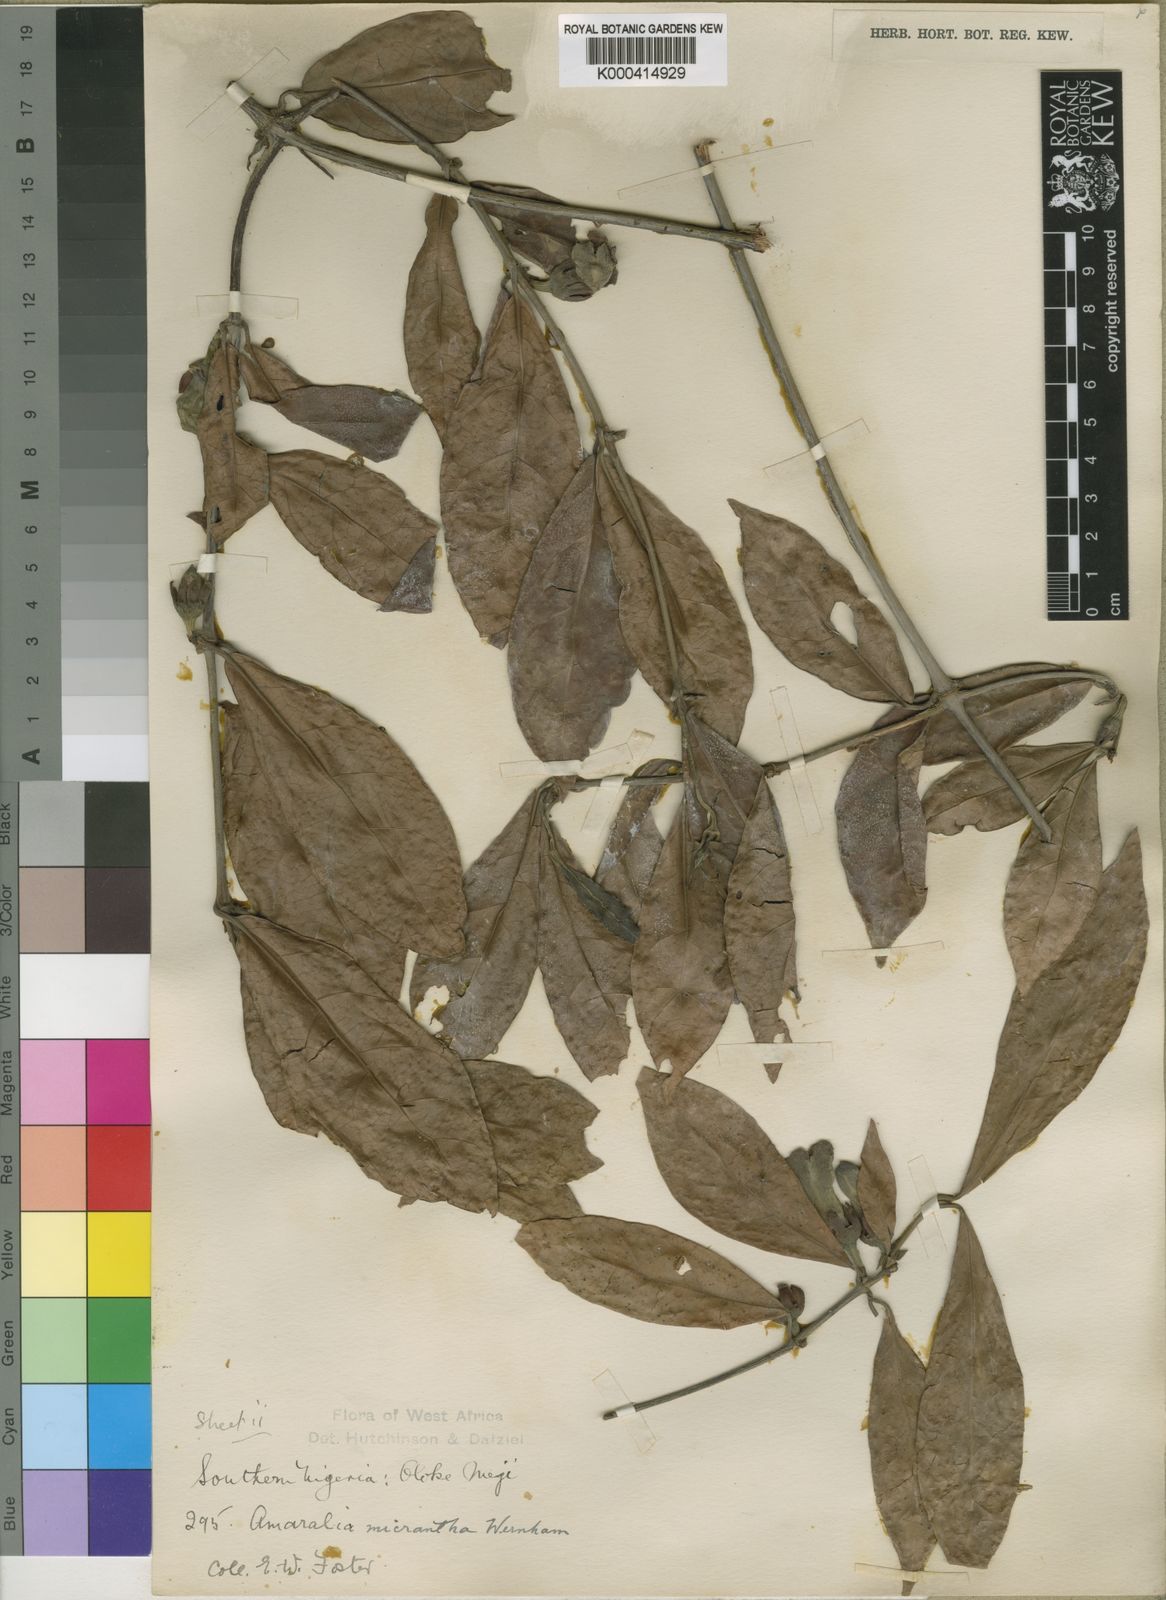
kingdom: Plantae
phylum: Tracheophyta
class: Magnoliopsida
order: Gentianales
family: Rubiaceae
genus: Sherbournia
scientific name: Sherbournia millenii
